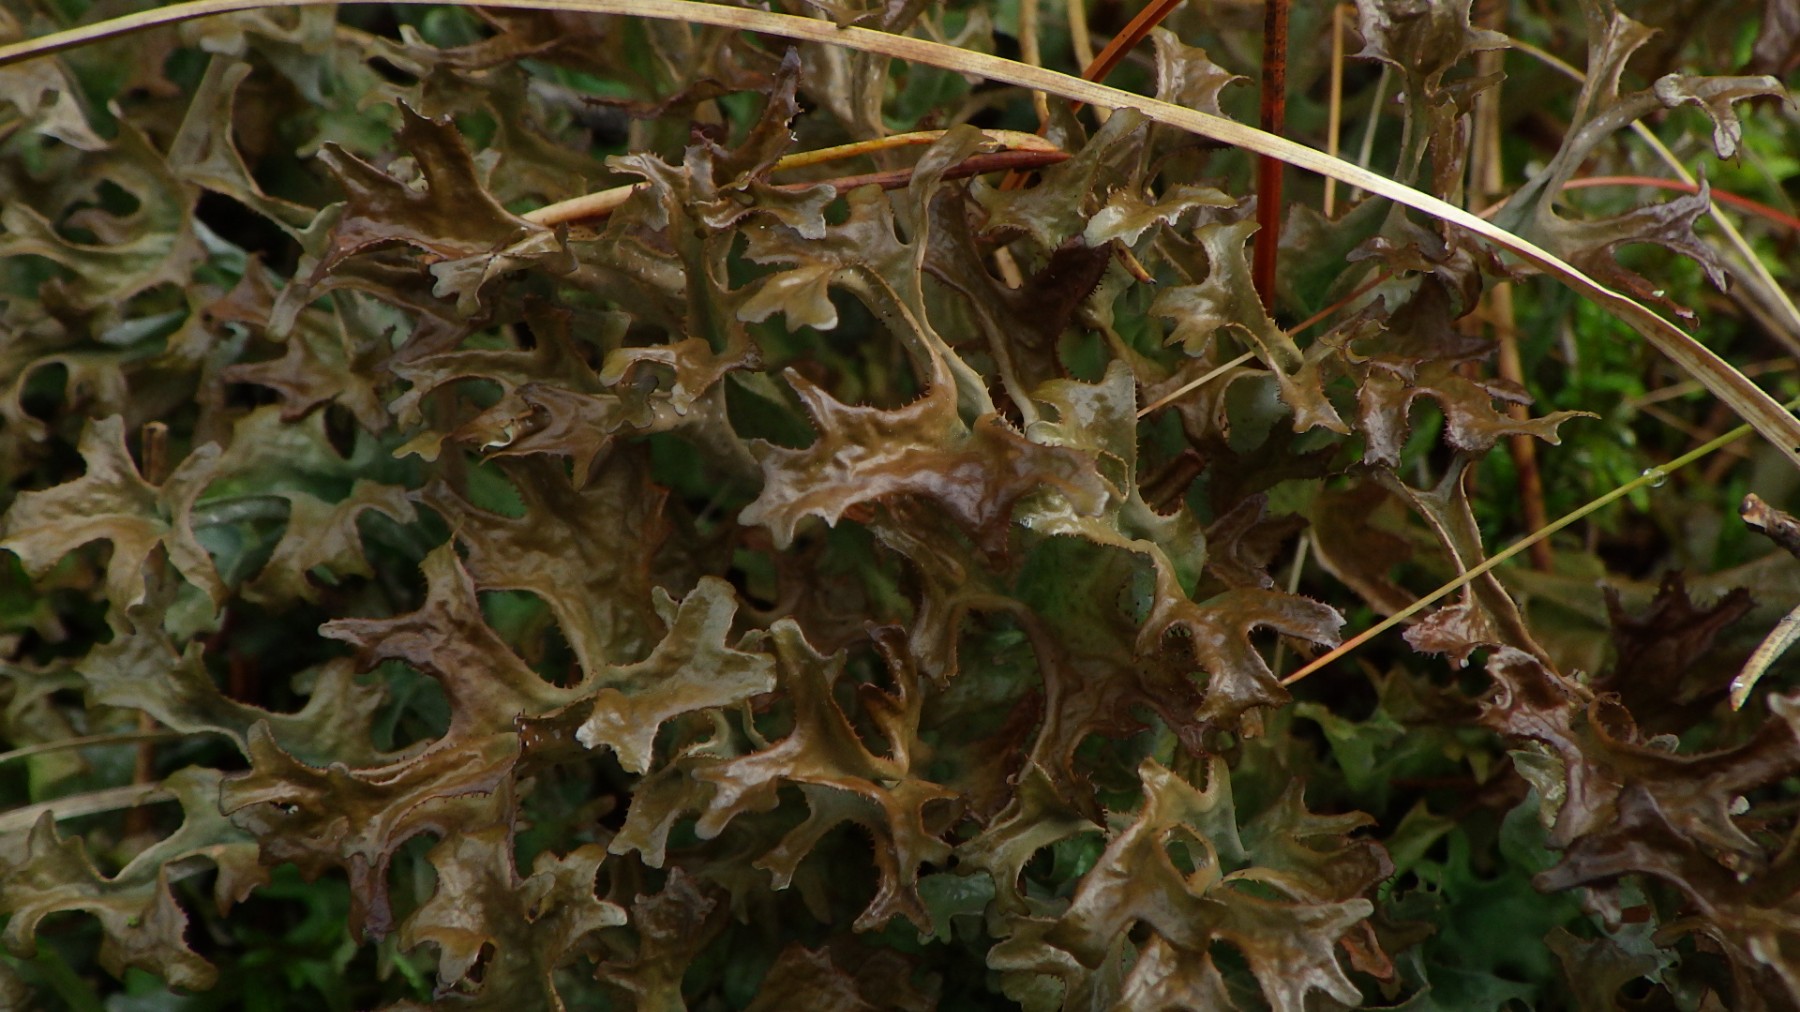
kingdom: Fungi
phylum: Ascomycota
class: Lecanoromycetes
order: Lecanorales
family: Parmeliaceae
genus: Cetraria
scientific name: Cetraria islandica
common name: islandsk kruslav
